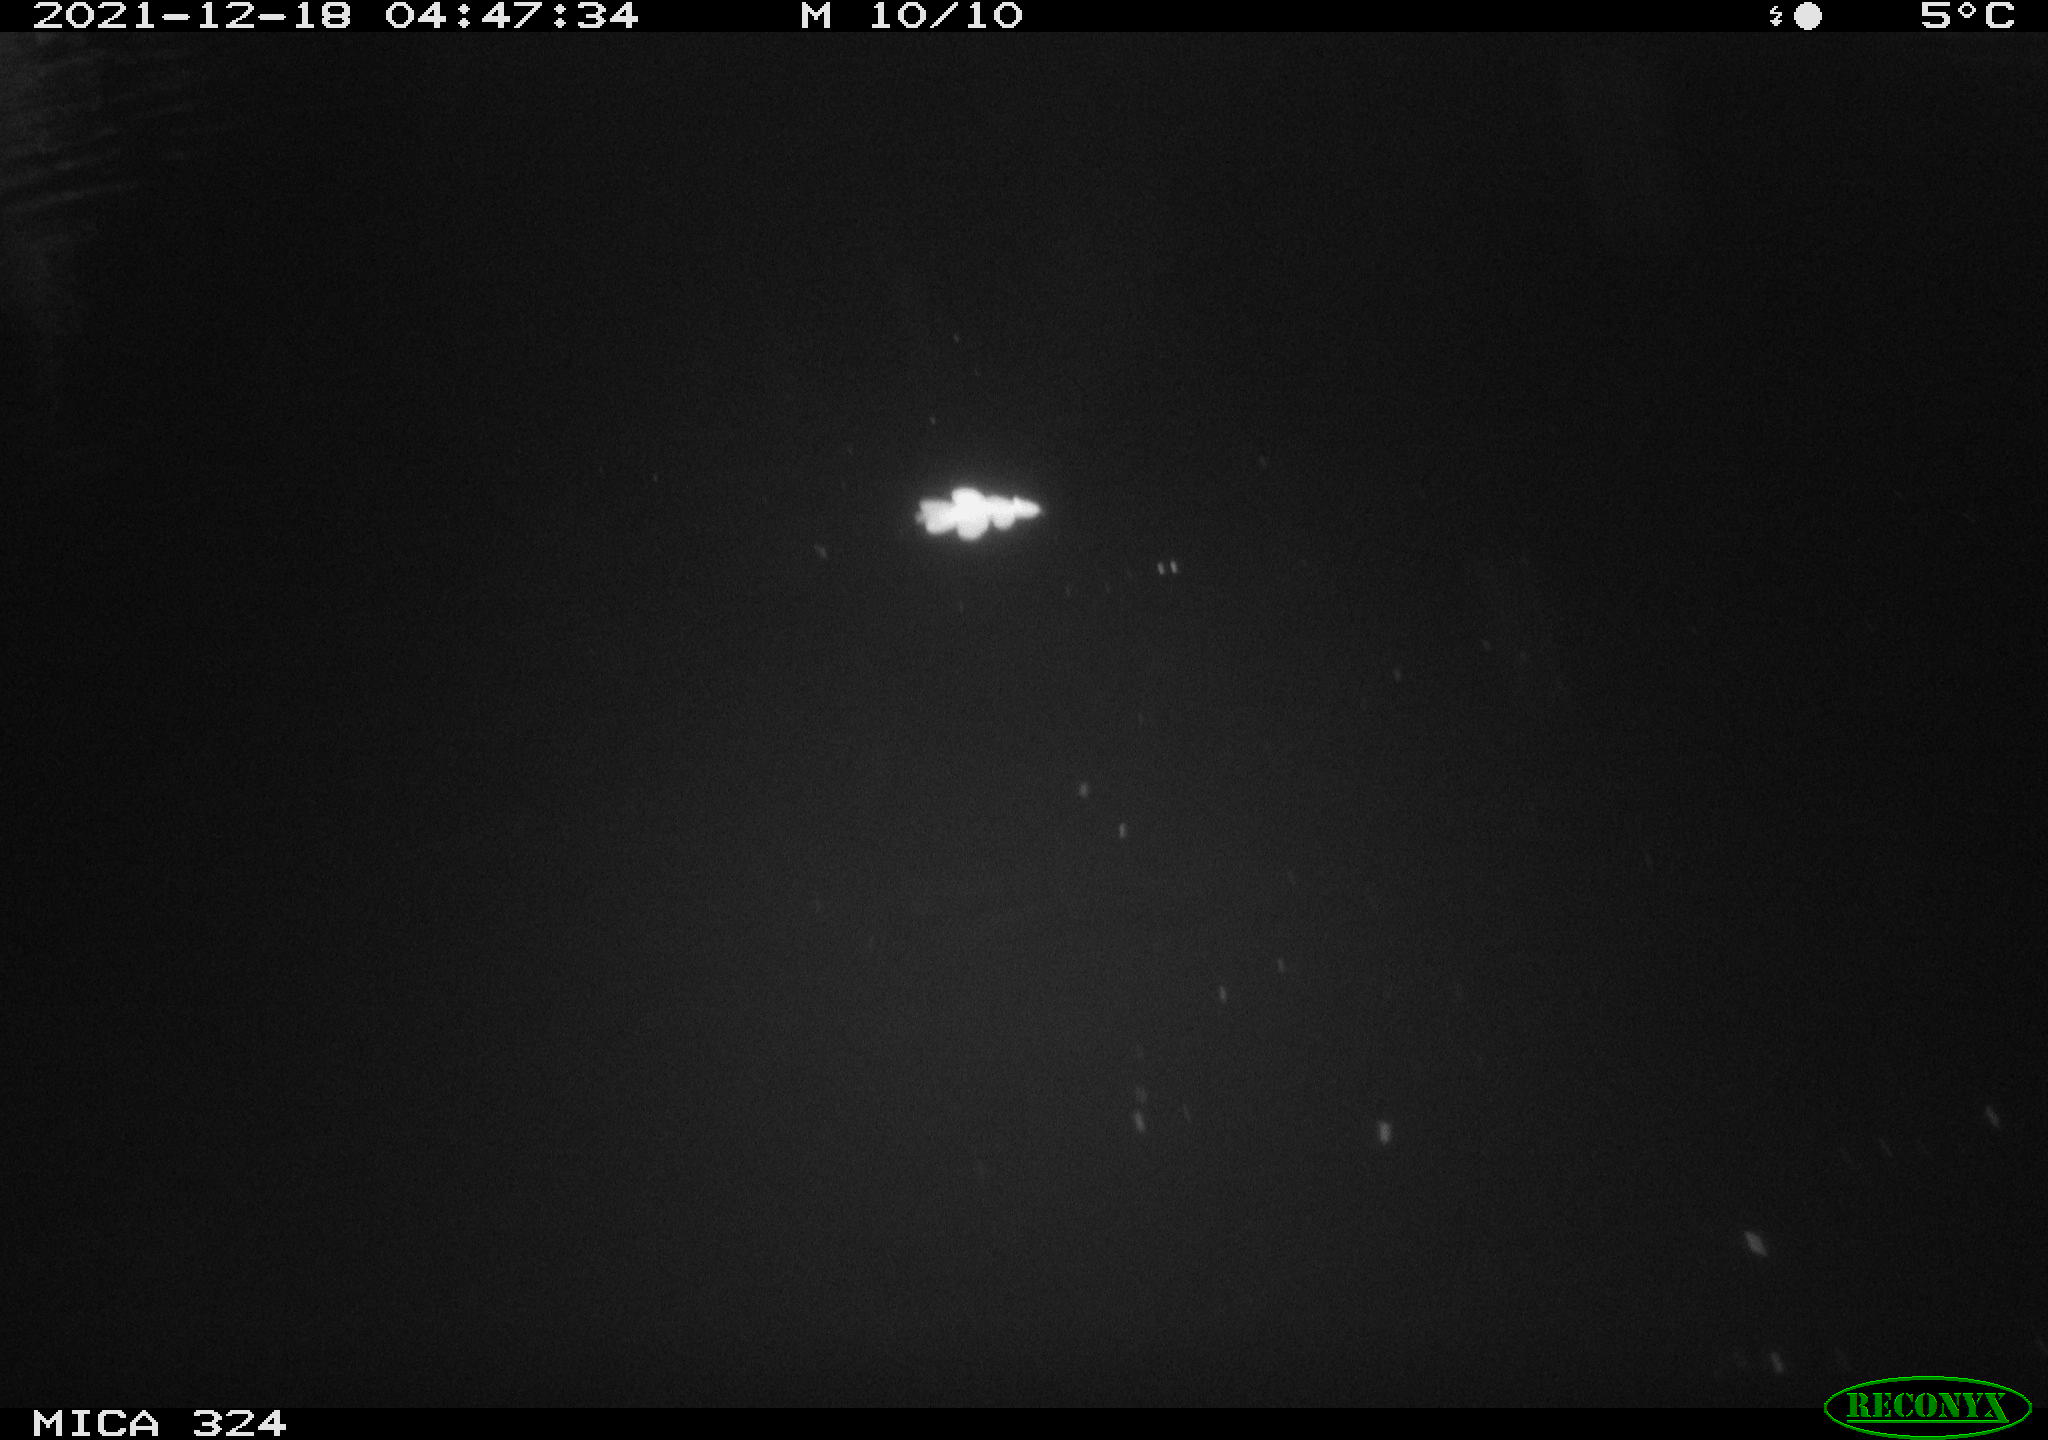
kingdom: Animalia
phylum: Chordata
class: Mammalia
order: Rodentia
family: Cricetidae
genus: Ondatra
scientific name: Ondatra zibethicus
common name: Muskrat
